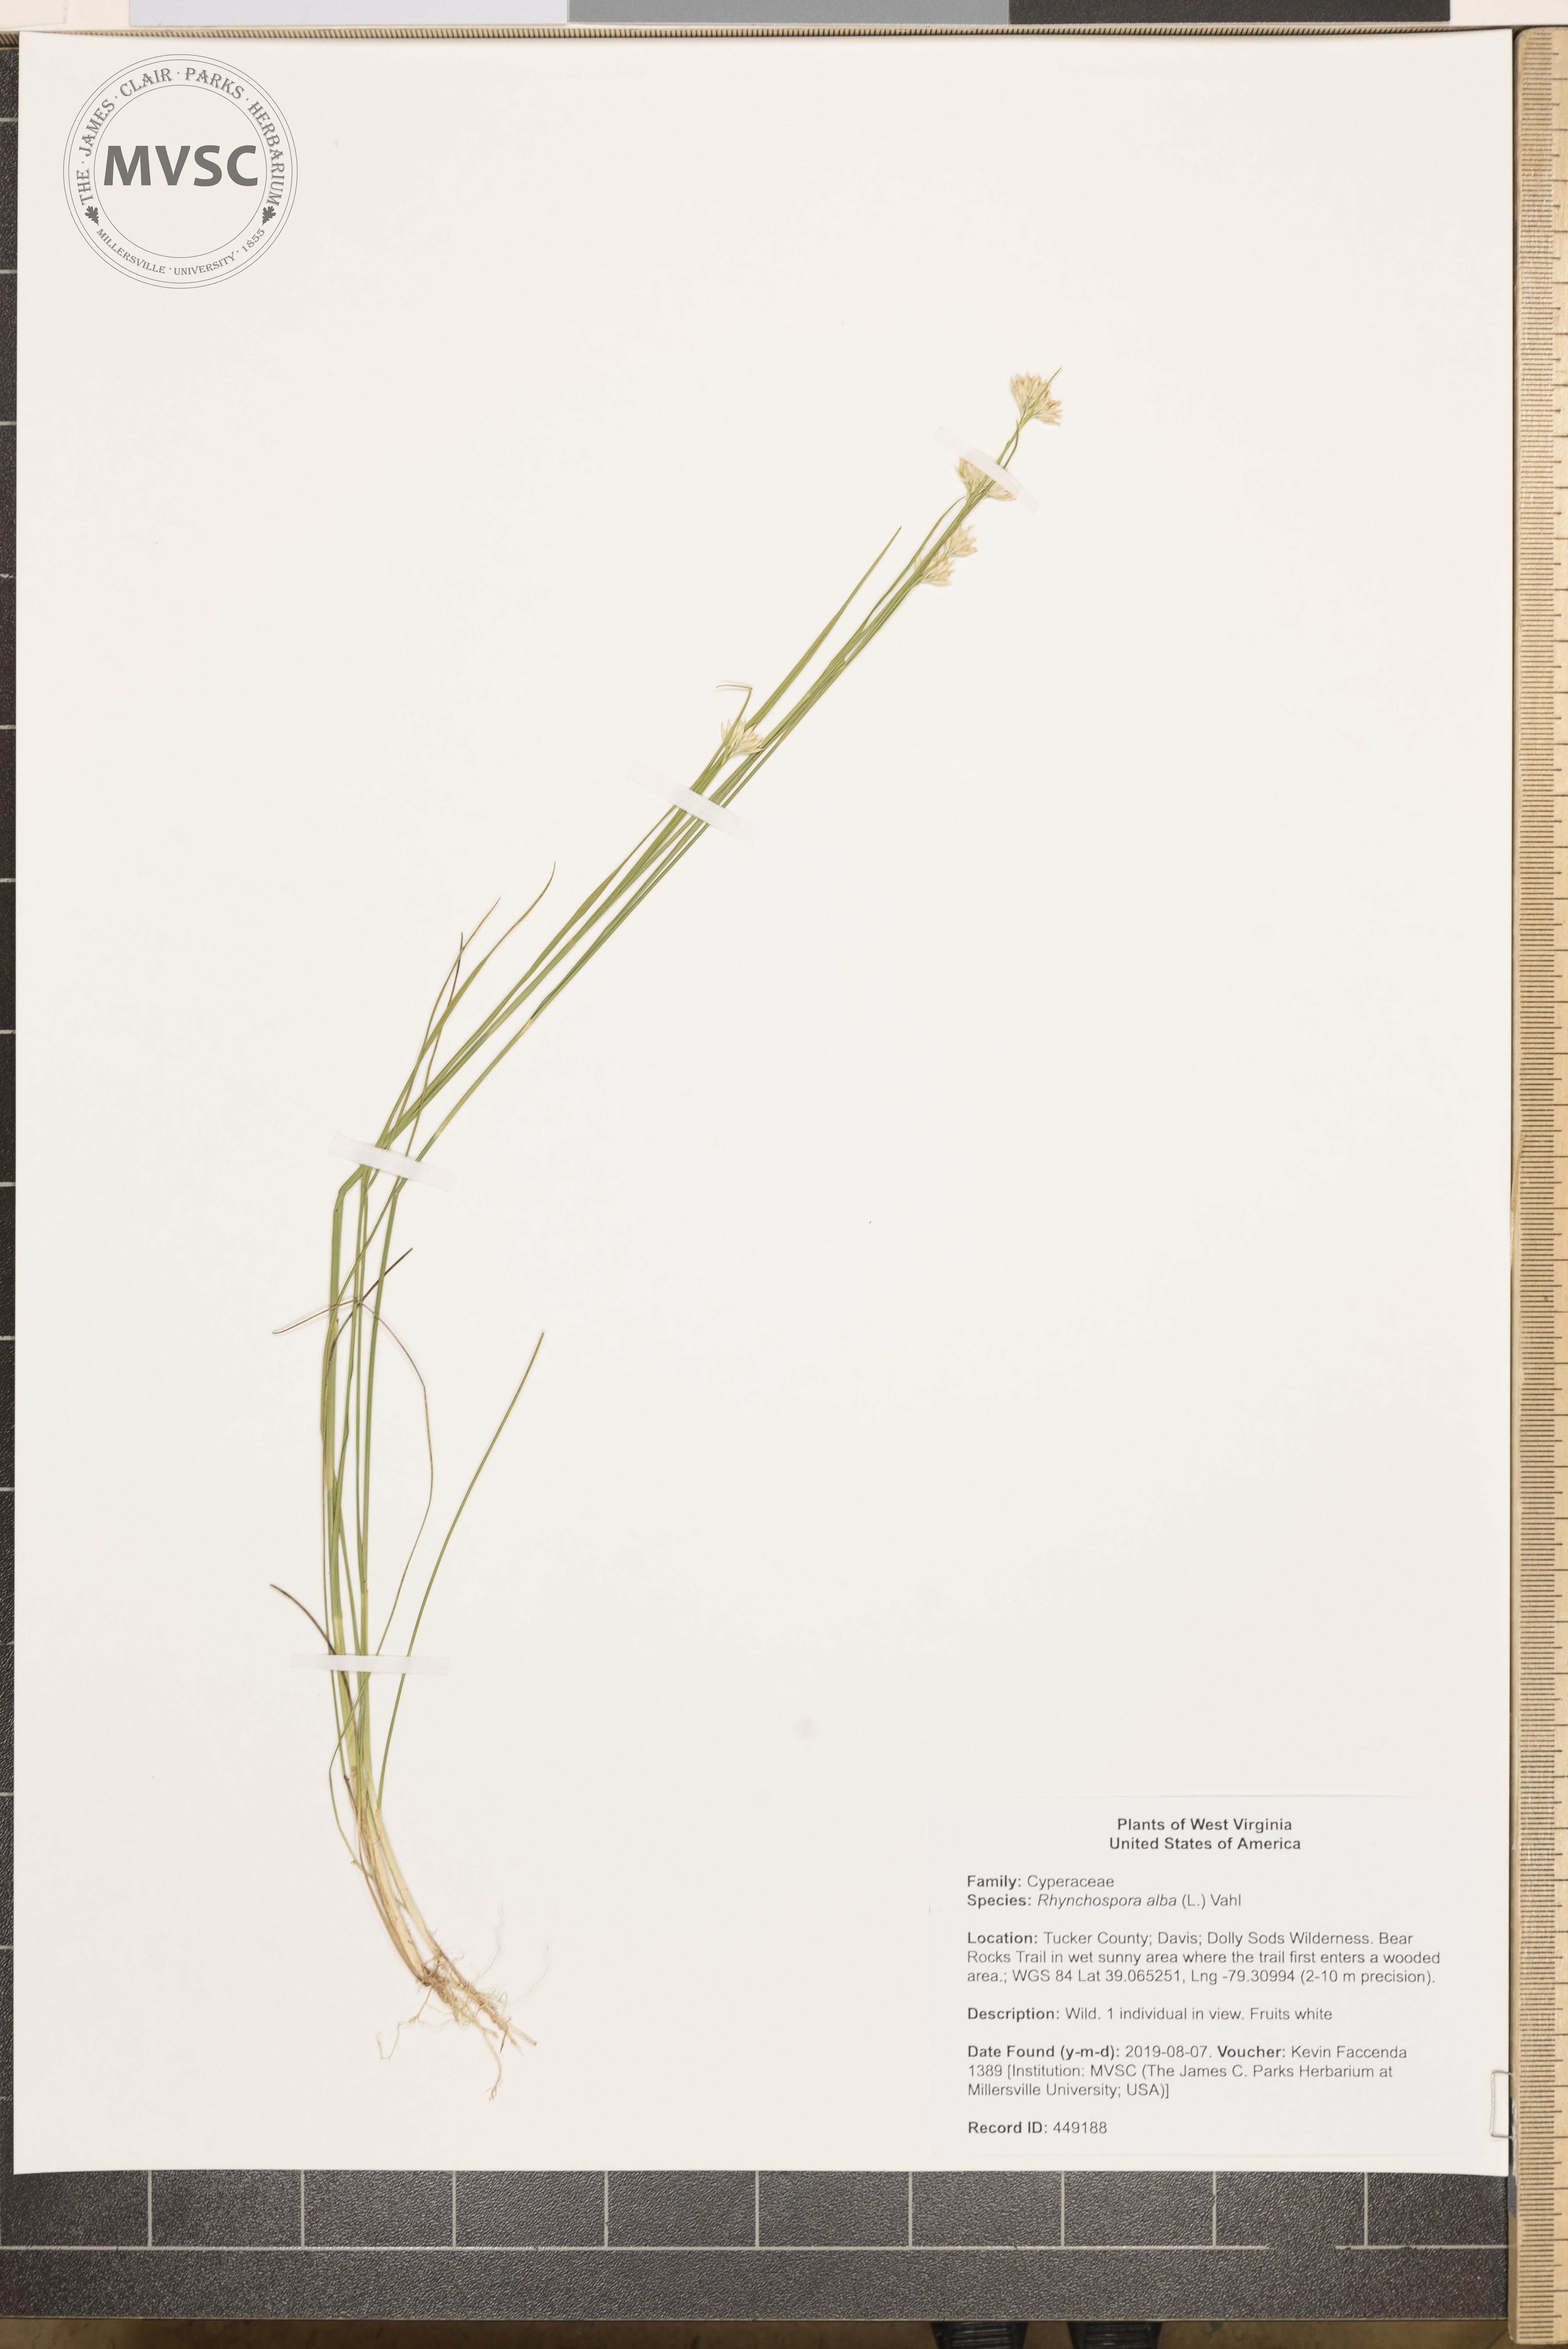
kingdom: Plantae
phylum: Tracheophyta
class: Liliopsida
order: Poales
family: Cyperaceae
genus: Rhynchospora
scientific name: Rhynchospora alba
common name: White beak-sedge
